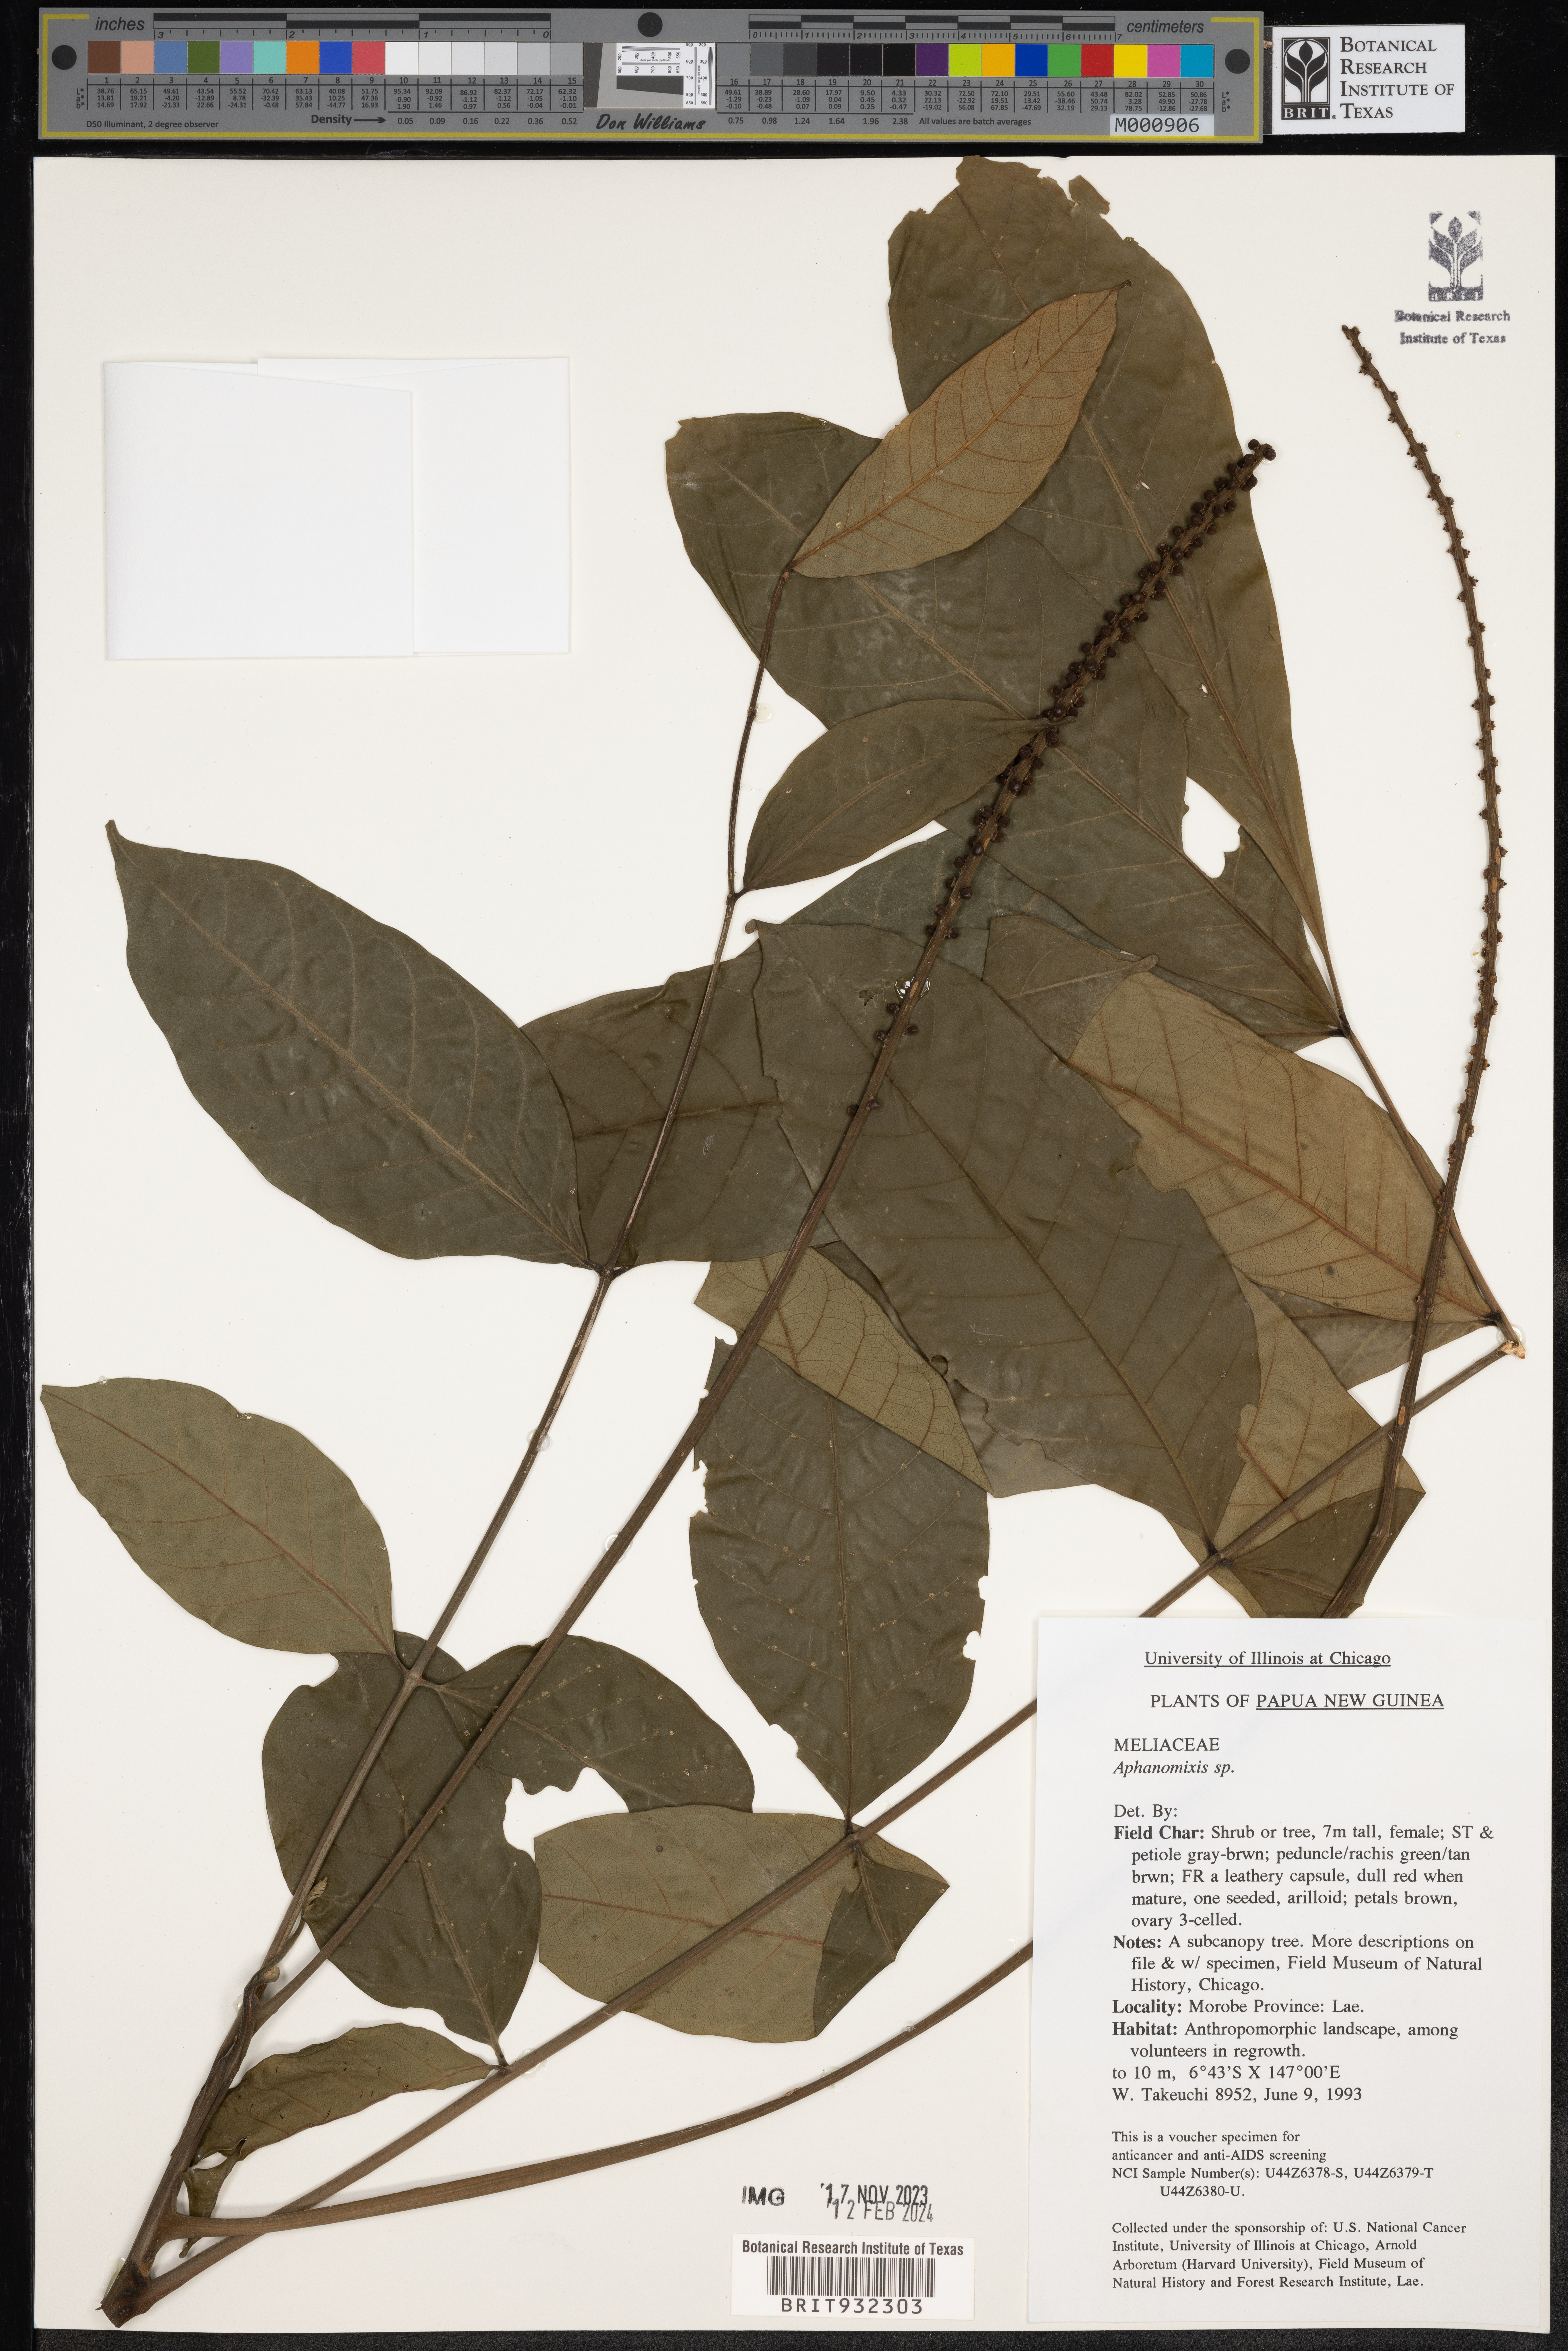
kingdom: Plantae
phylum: Tracheophyta
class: Magnoliopsida
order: Sapindales
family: Meliaceae
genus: Aphanamixis
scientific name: Aphanamixis
